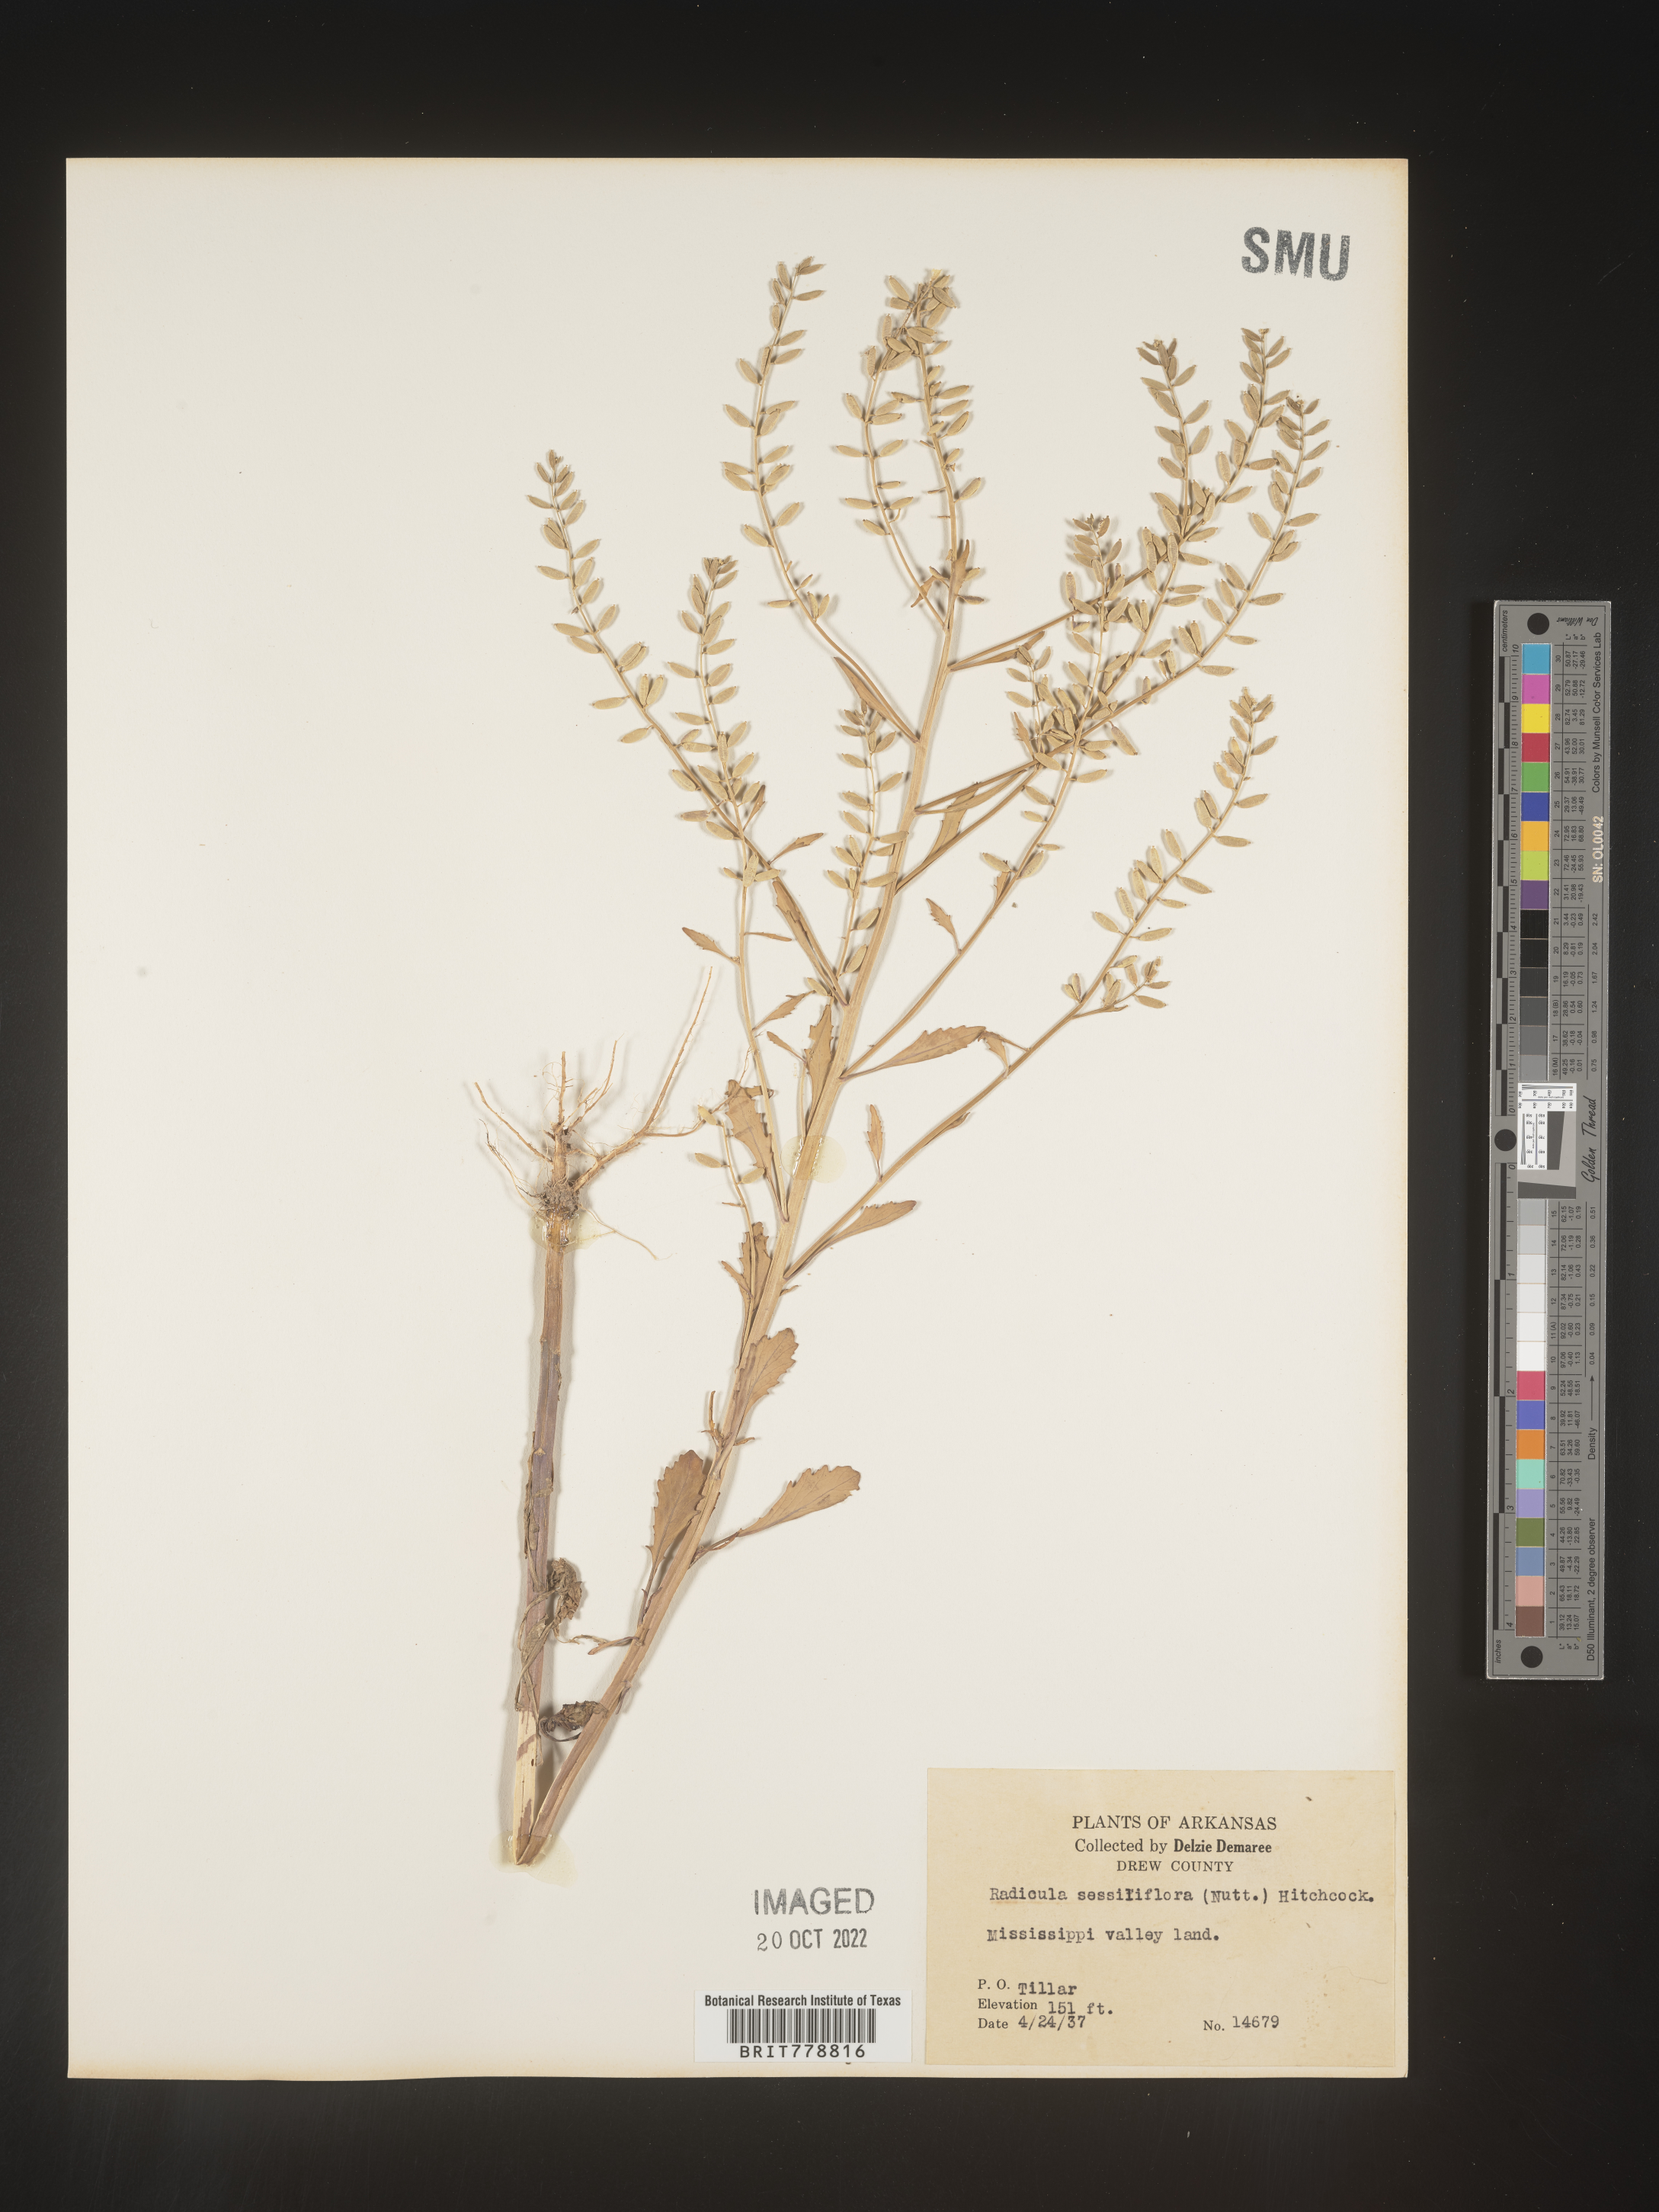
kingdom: Plantae
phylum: Tracheophyta
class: Magnoliopsida
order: Brassicales
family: Brassicaceae
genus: Rorippa
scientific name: Rorippa sessiliflora
